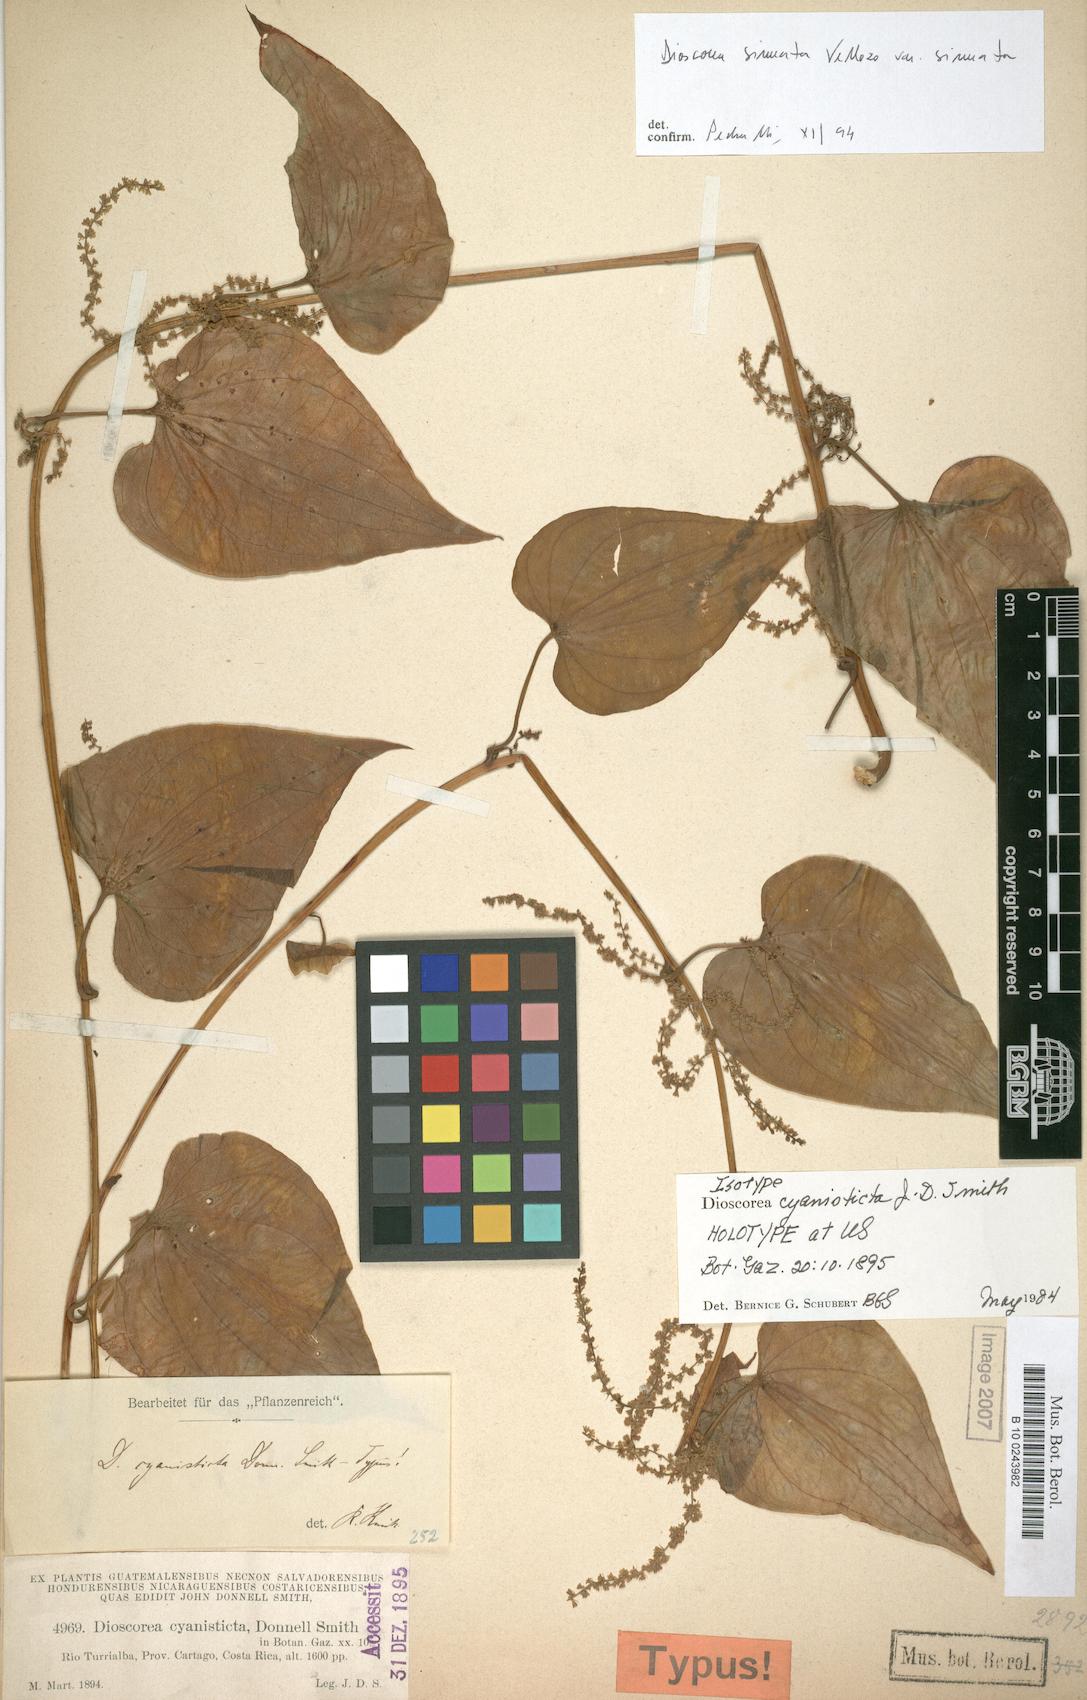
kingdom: Plantae
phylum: Tracheophyta
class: Liliopsida
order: Dioscoreales
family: Dioscoreaceae
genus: Dioscorea
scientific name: Dioscorea cyanisticta
